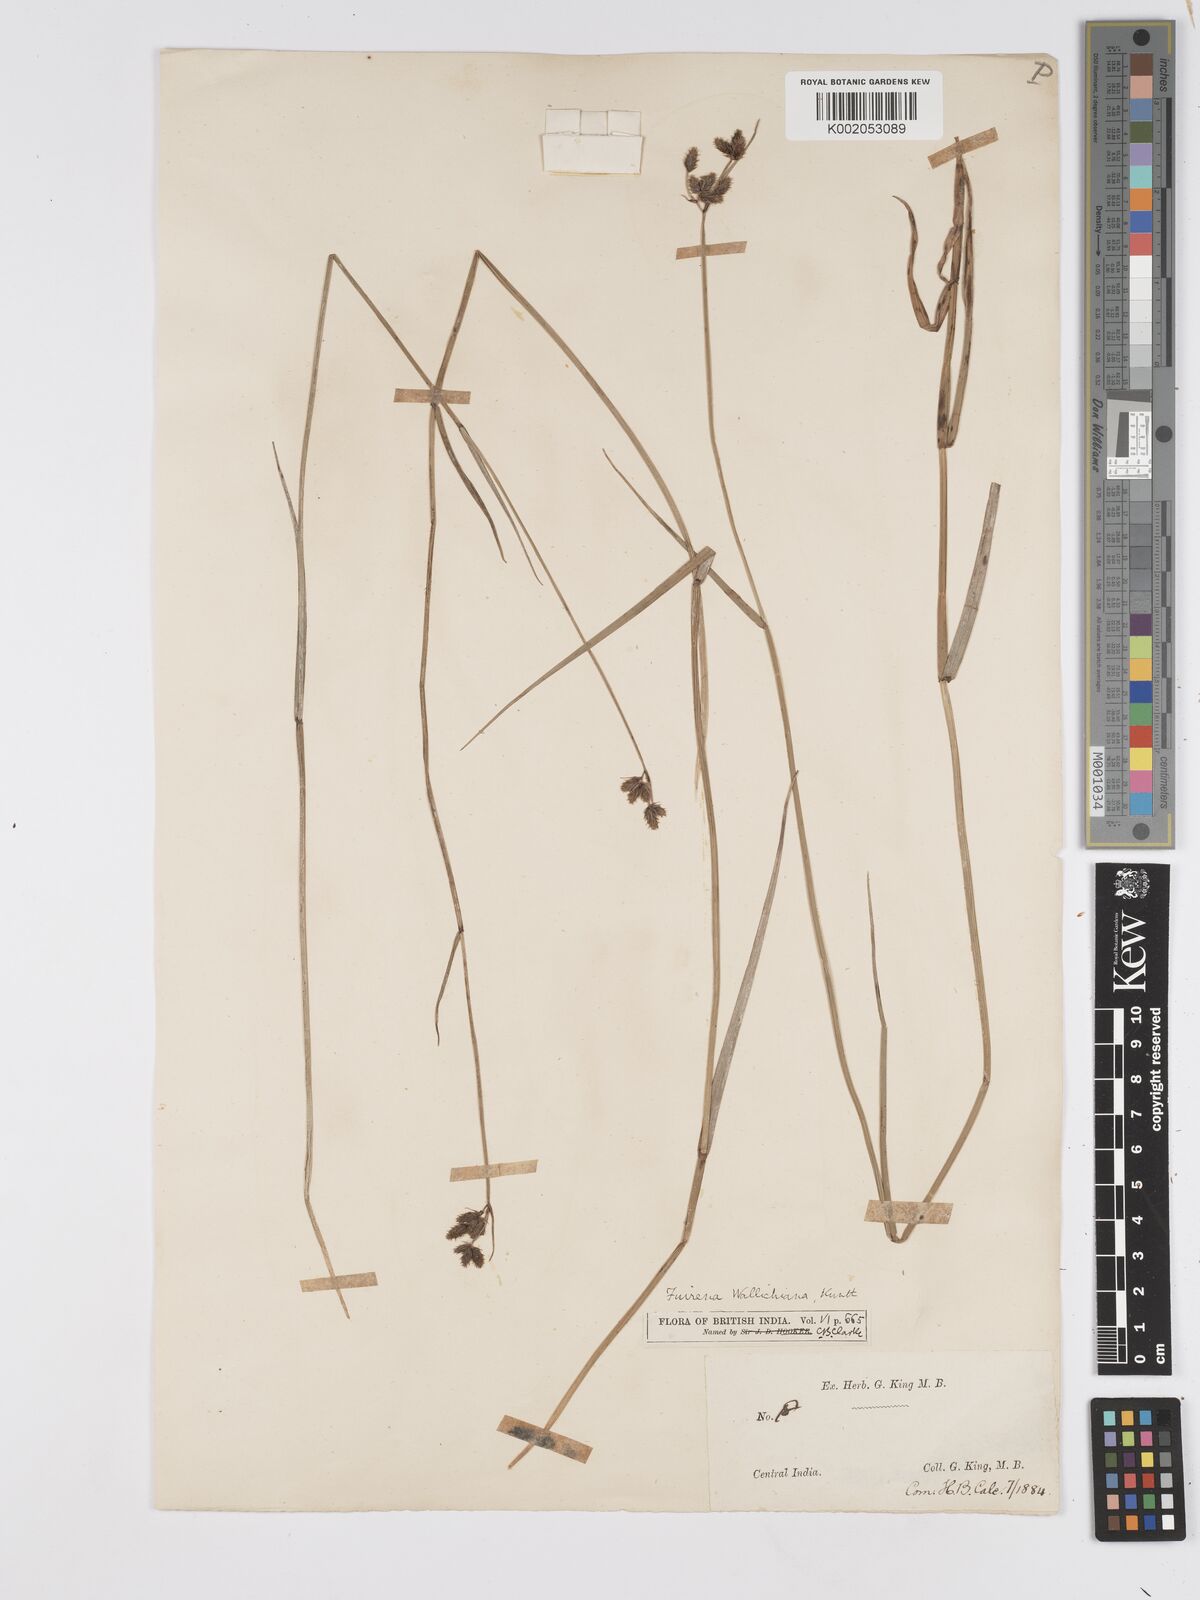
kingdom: Plantae
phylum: Tracheophyta
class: Liliopsida
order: Poales
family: Cyperaceae
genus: Fuirena
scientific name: Fuirena cuspidata
